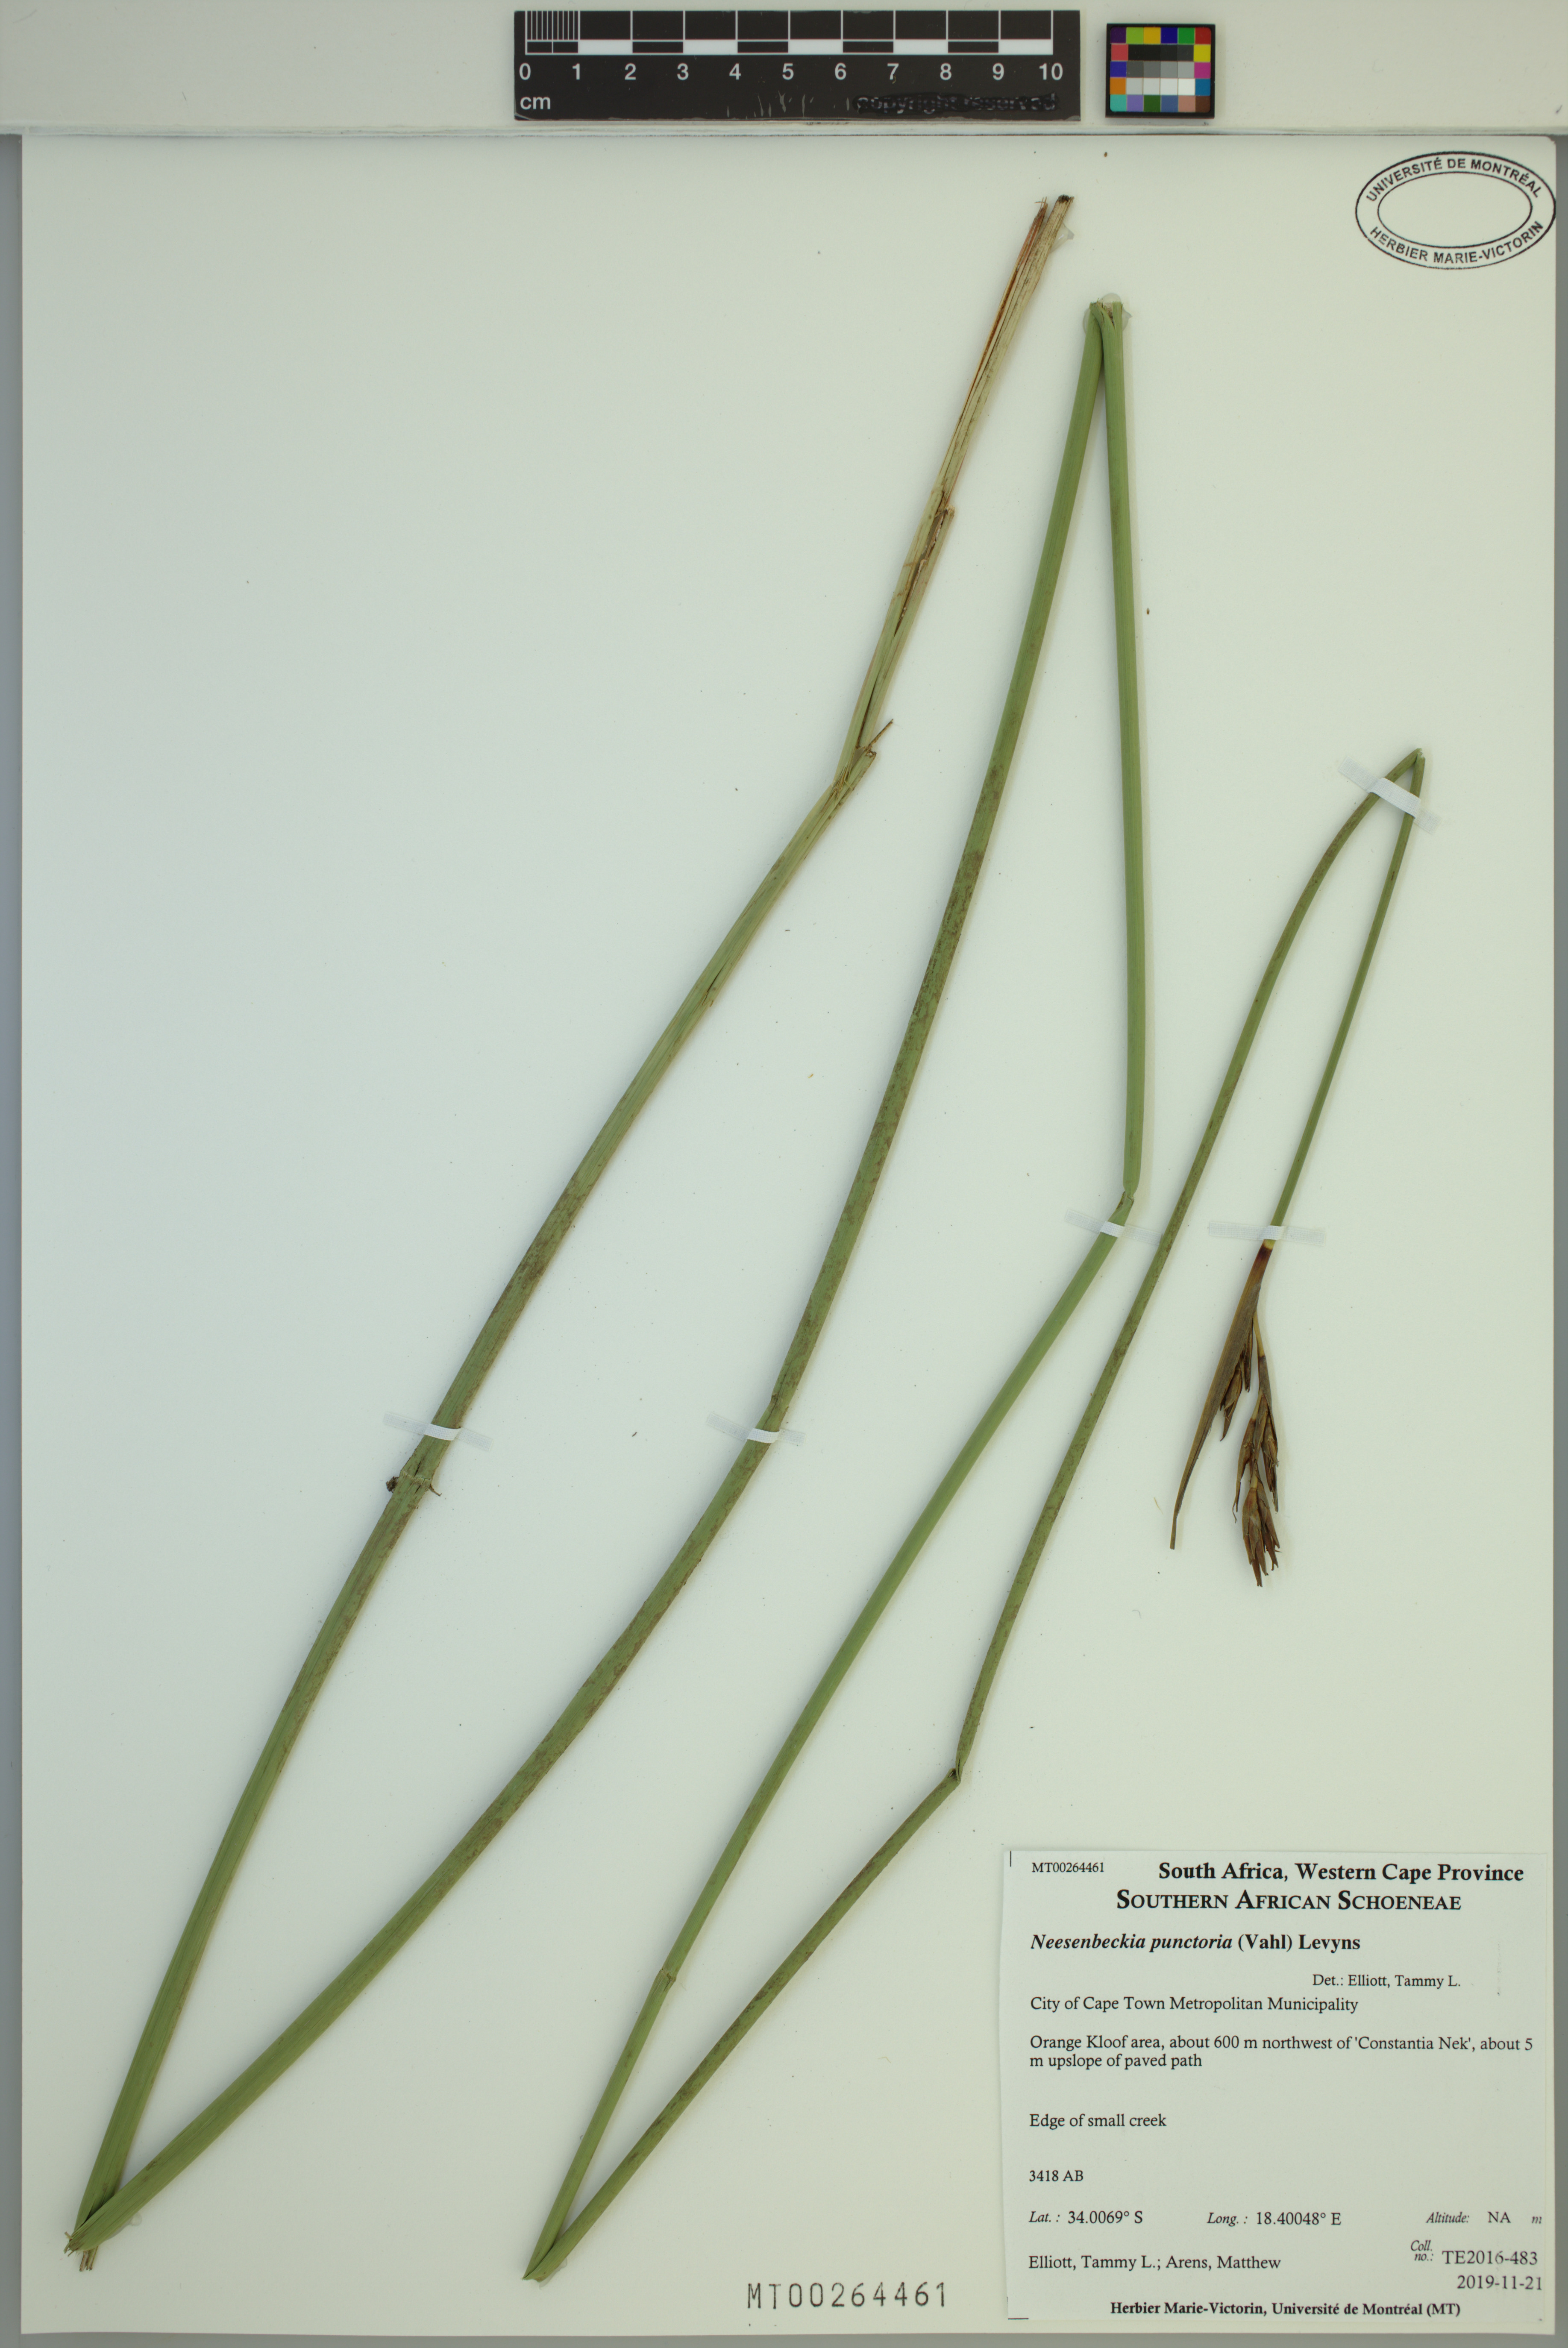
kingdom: Plantae
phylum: Tracheophyta
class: Liliopsida
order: Poales
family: Cyperaceae
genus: Neesenbeckia
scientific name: Neesenbeckia punctoria
